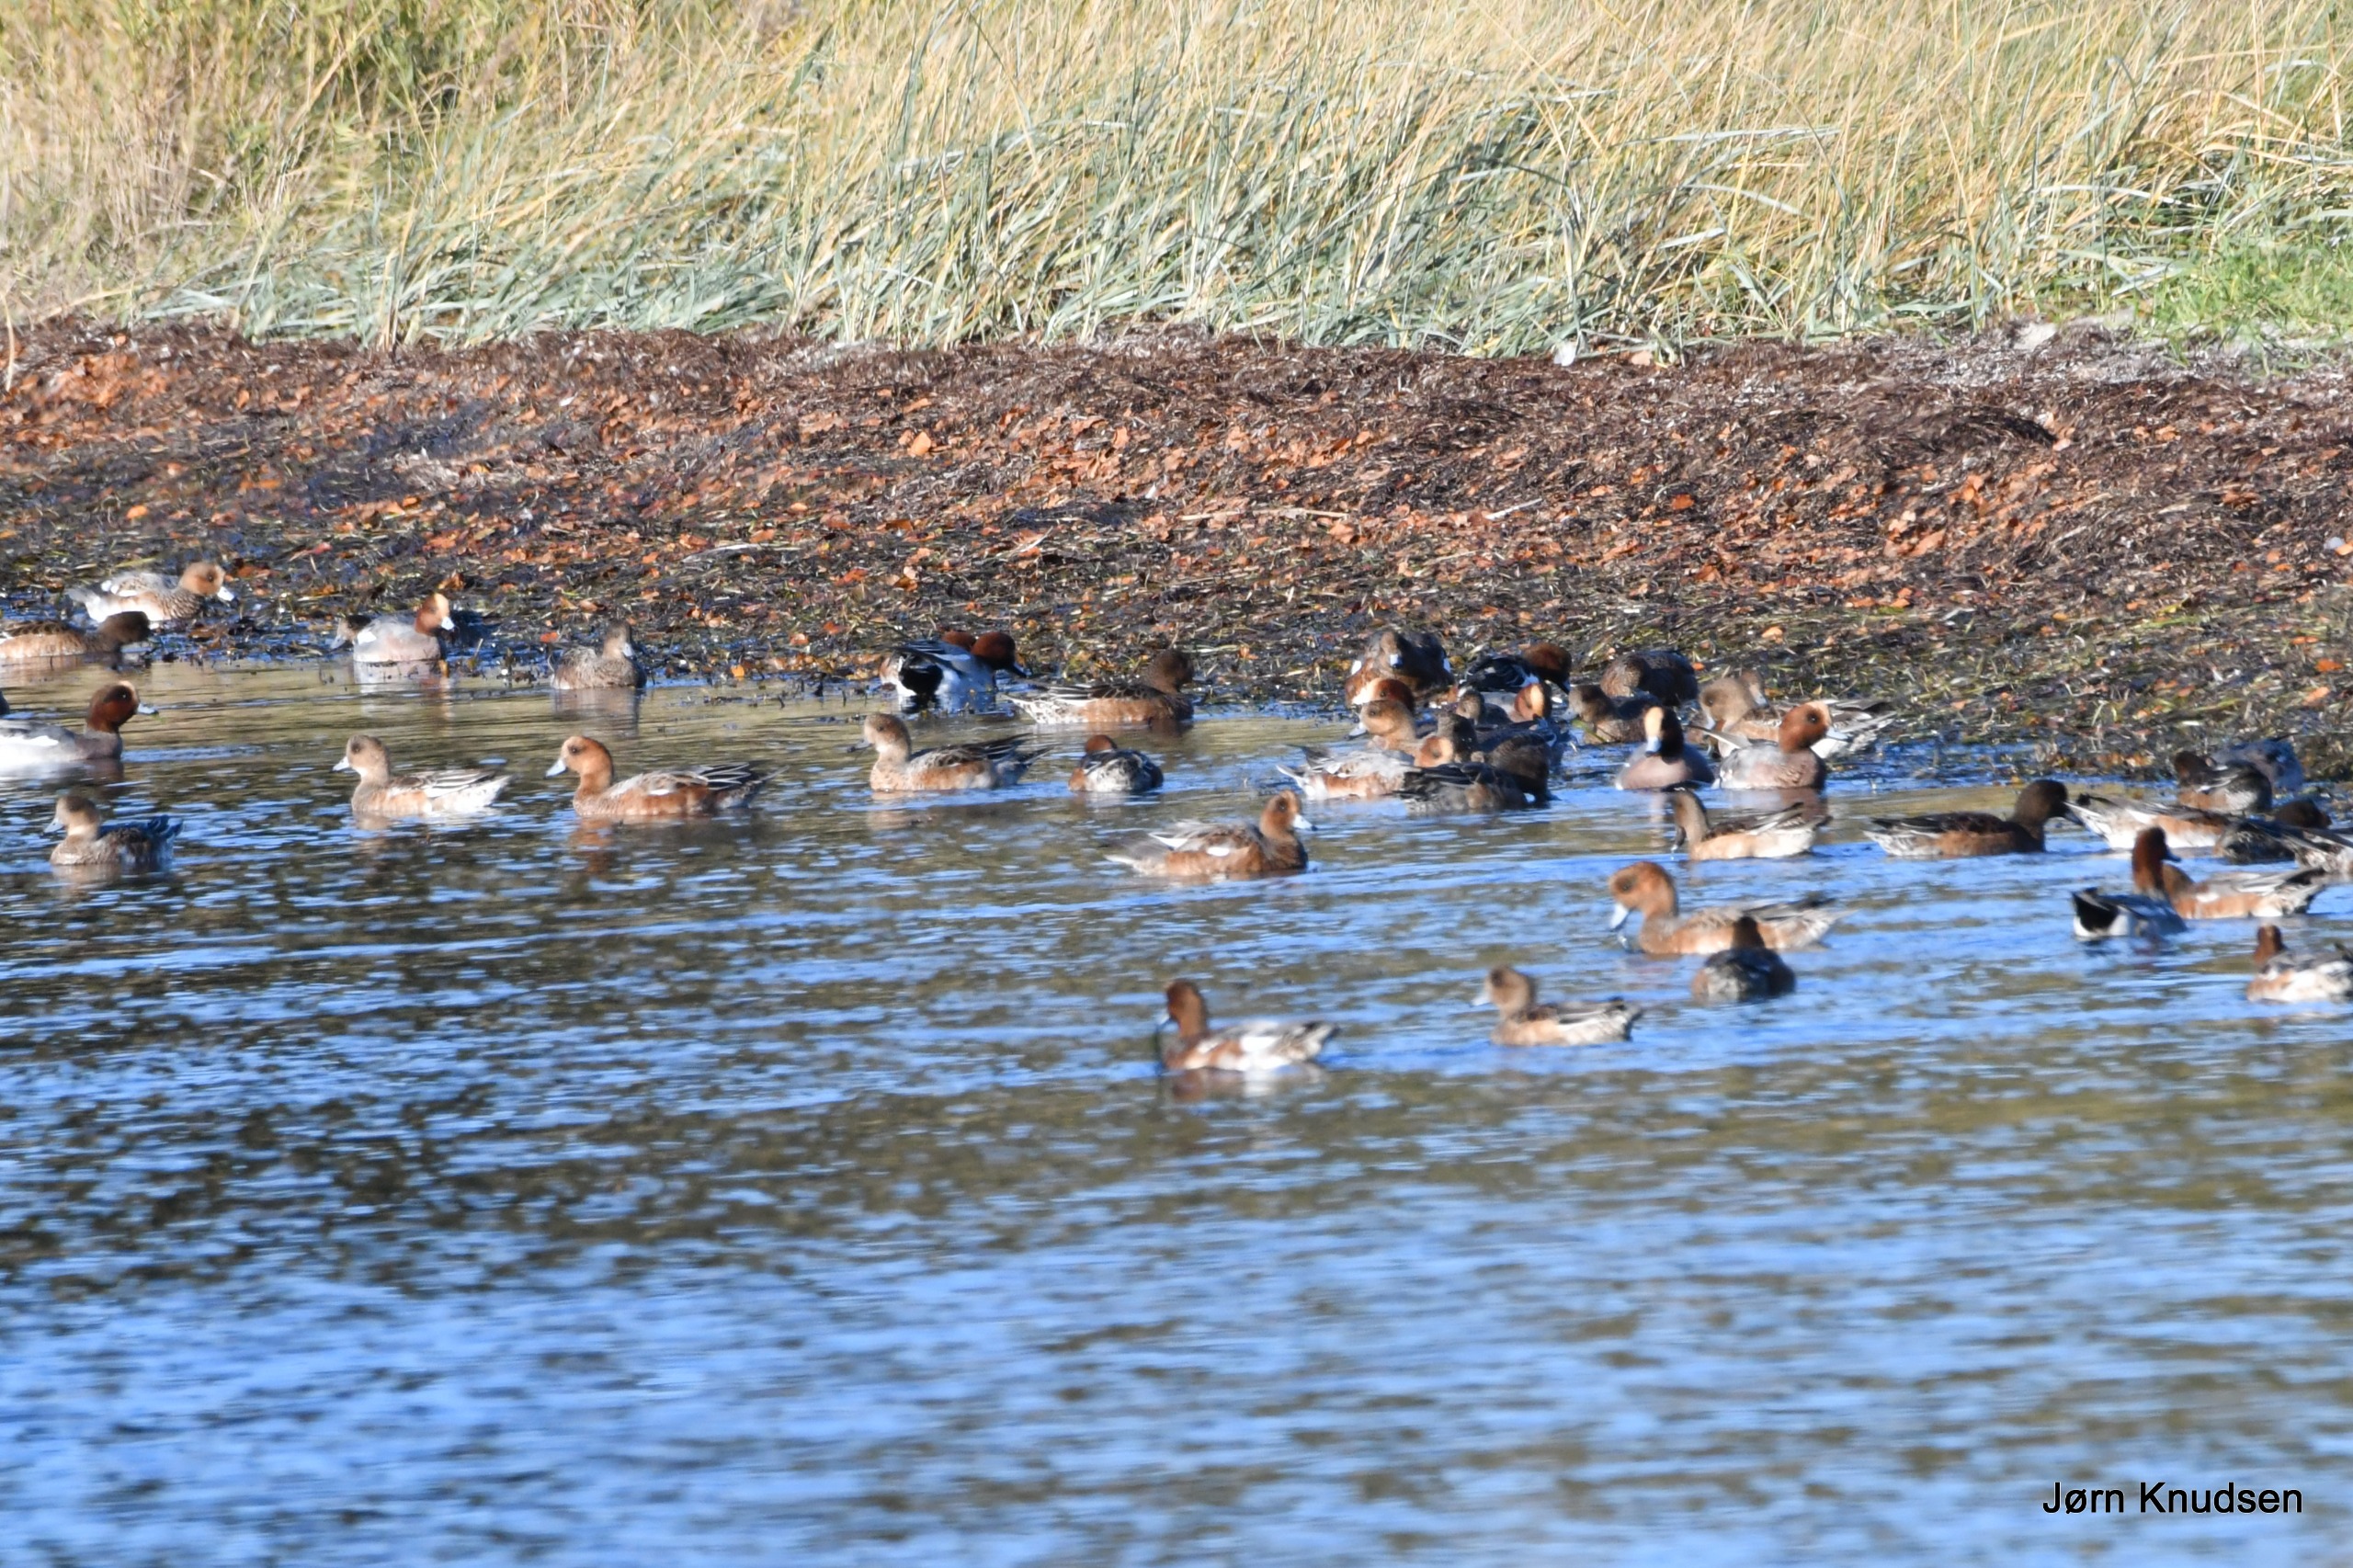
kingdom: Animalia
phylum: Chordata
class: Aves
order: Anseriformes
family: Anatidae
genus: Mareca
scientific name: Mareca penelope
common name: Pibeand
